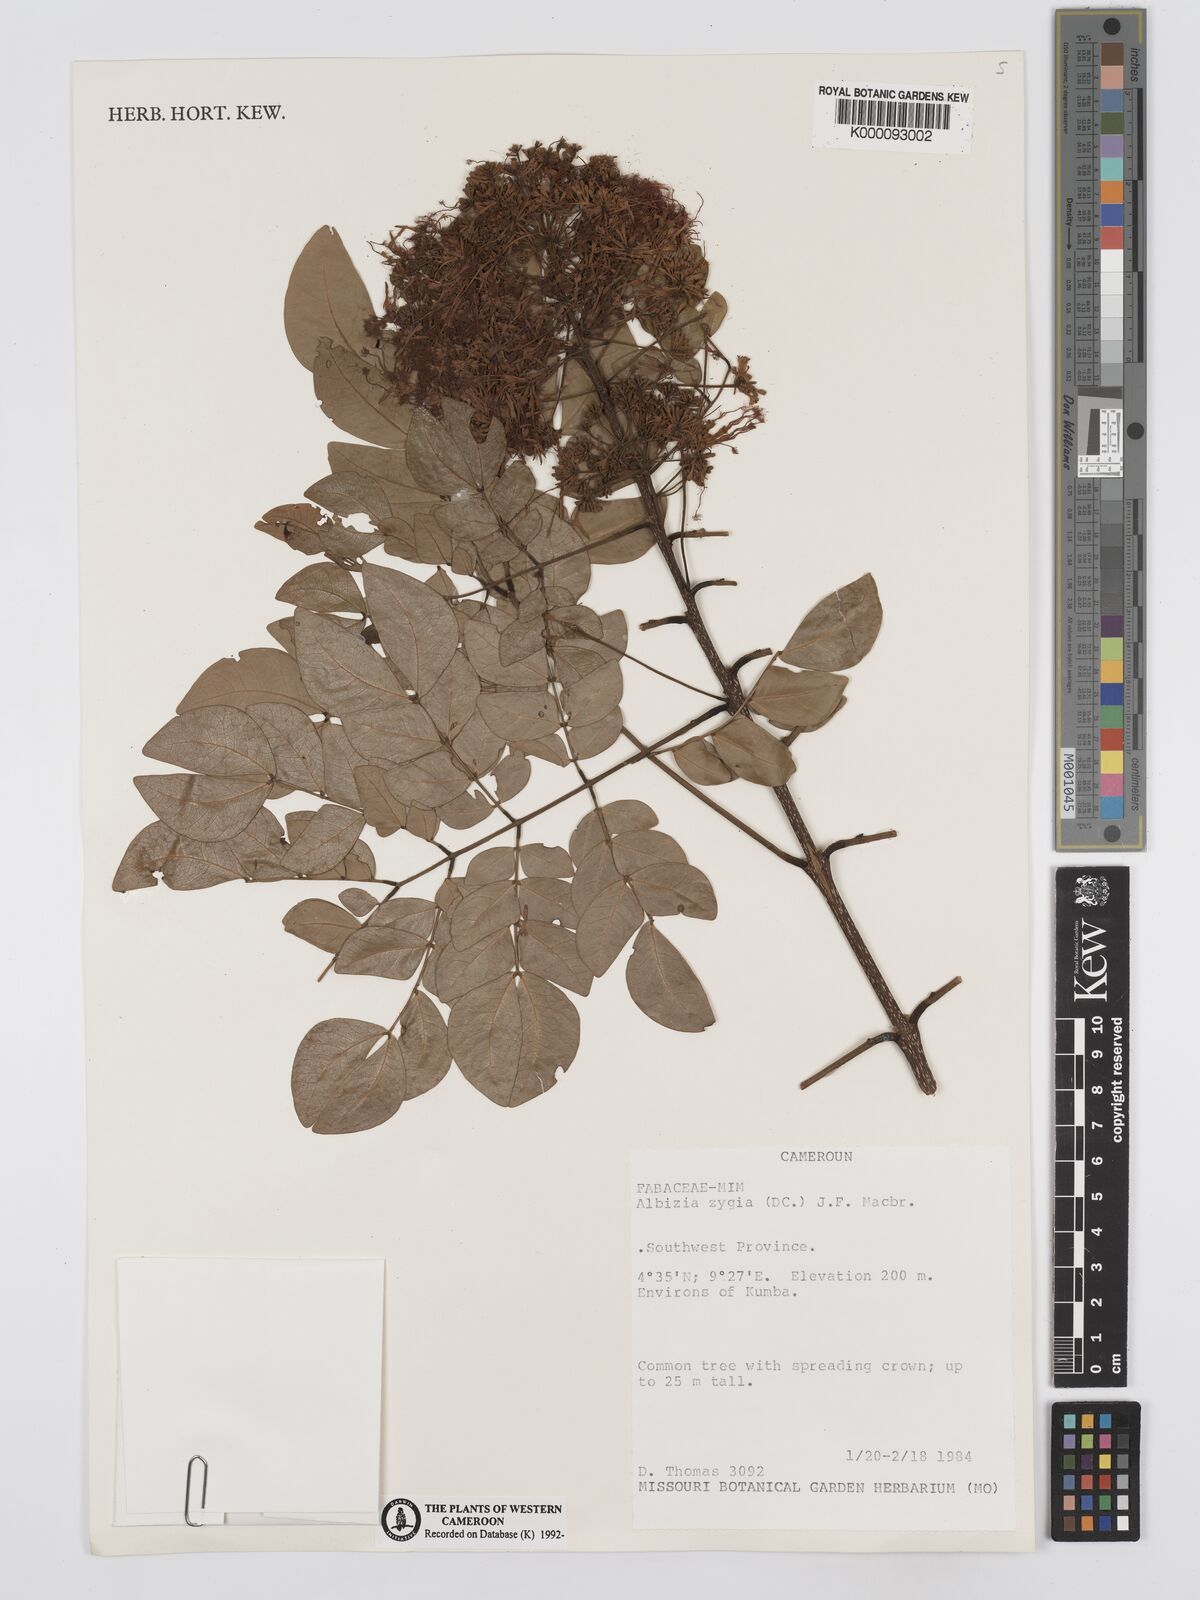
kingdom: Plantae
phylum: Tracheophyta
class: Magnoliopsida
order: Fabales
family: Fabaceae
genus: Albizia
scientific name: Albizia zygia
